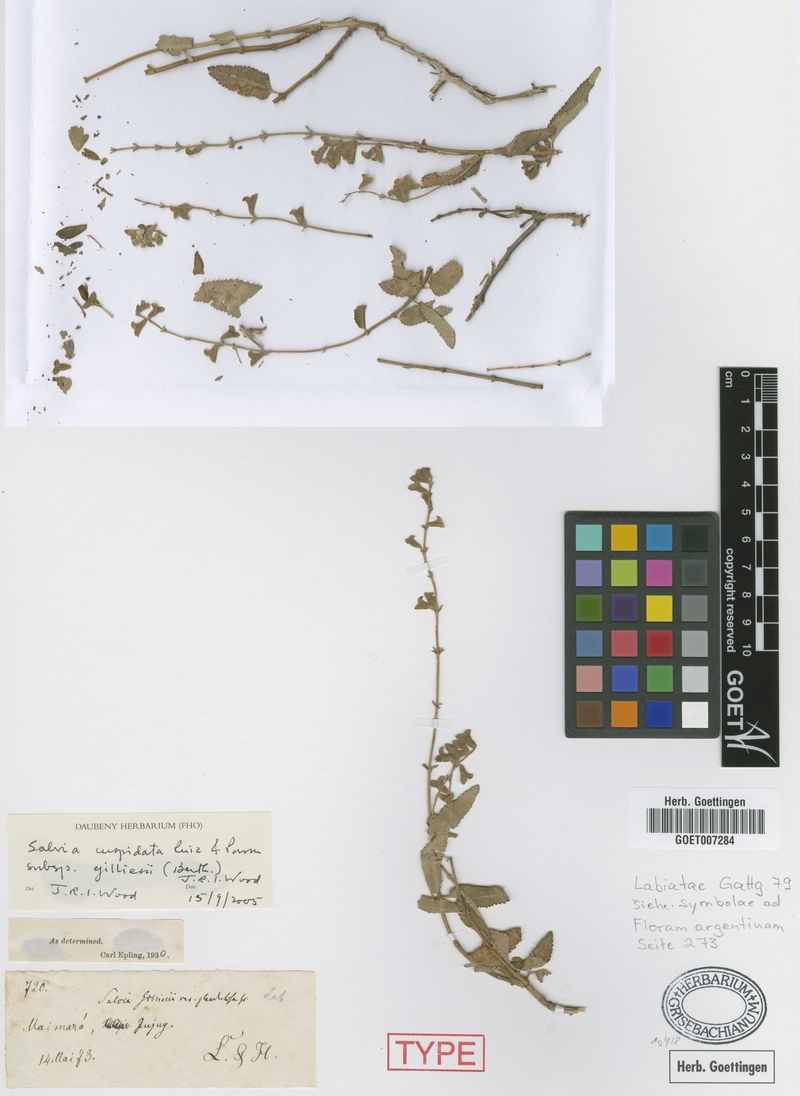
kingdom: Plantae
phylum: Tracheophyta
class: Magnoliopsida
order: Lamiales
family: Lamiaceae
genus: Salvia
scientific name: Salvia cuspidata
